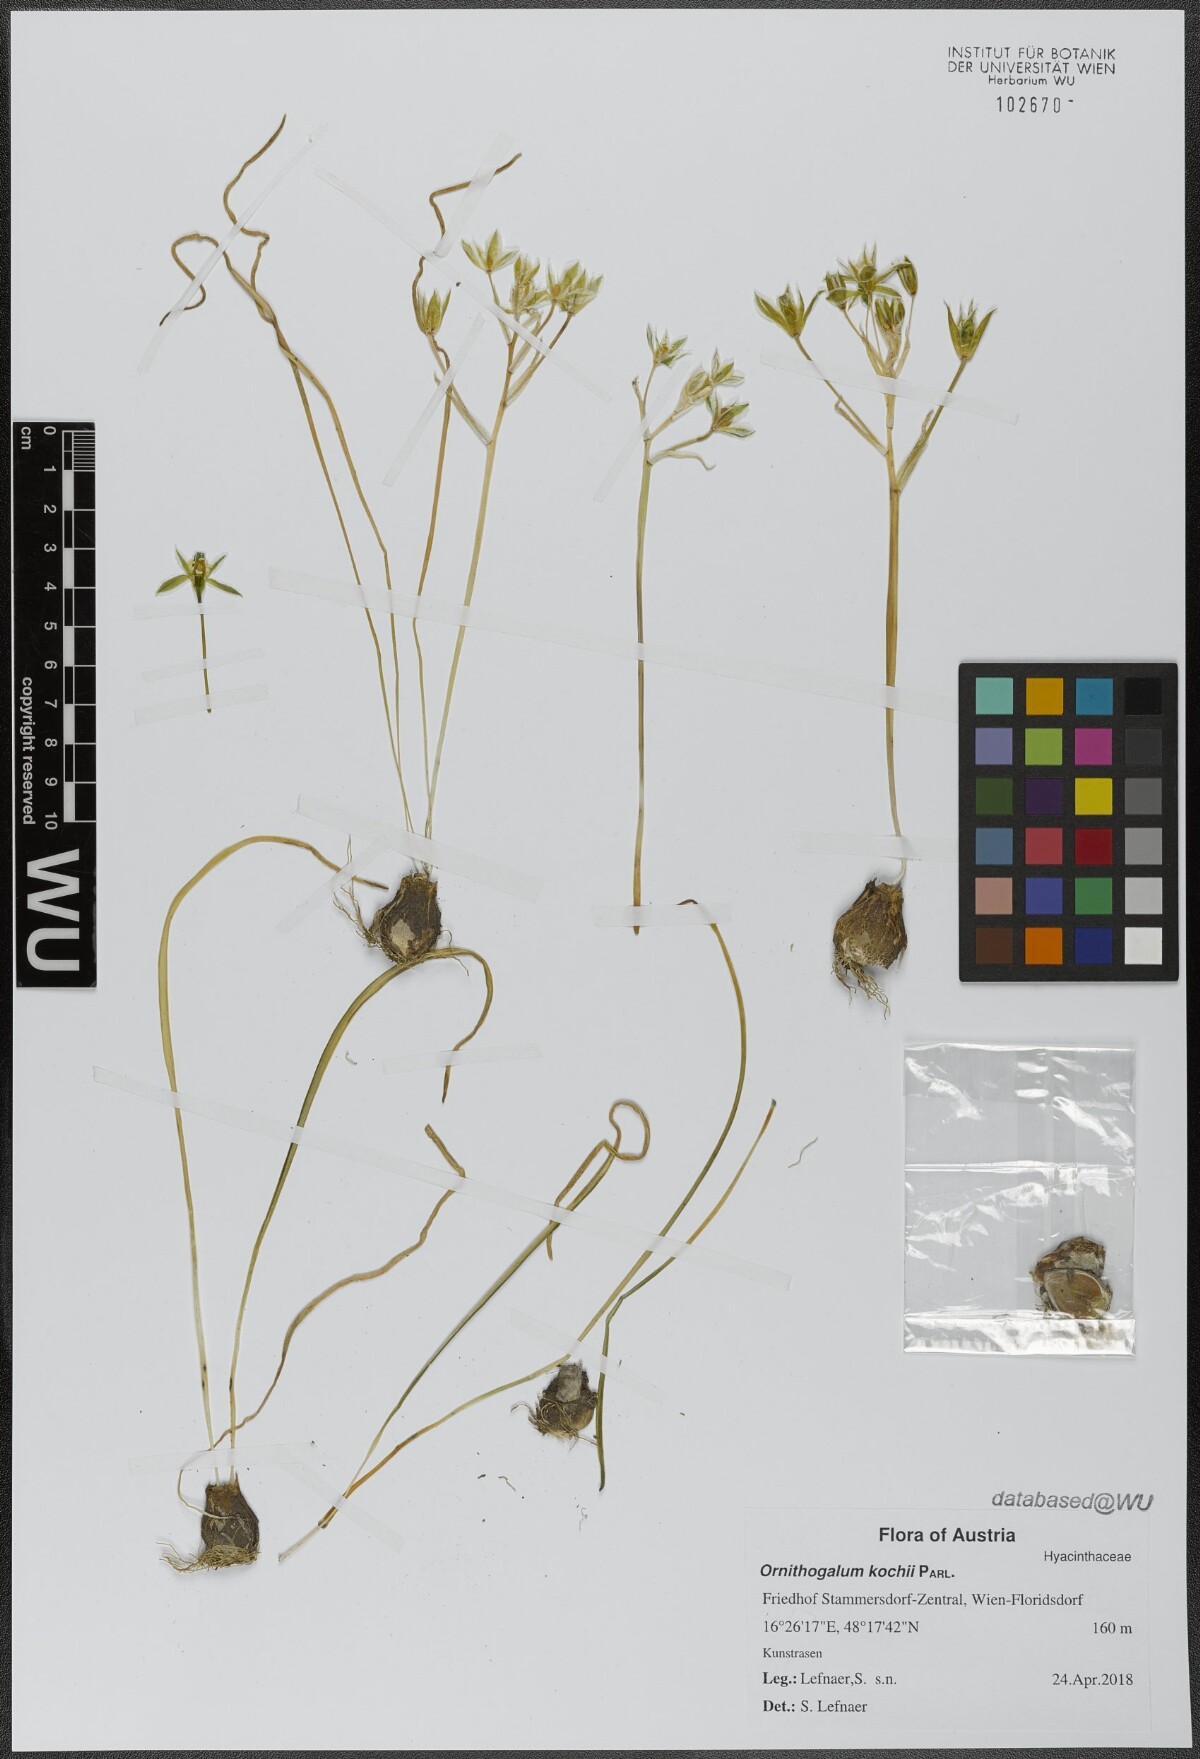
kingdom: Plantae
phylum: Tracheophyta
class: Liliopsida
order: Asparagales
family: Asparagaceae
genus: Ornithogalum
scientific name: Ornithogalum orthophyllum
